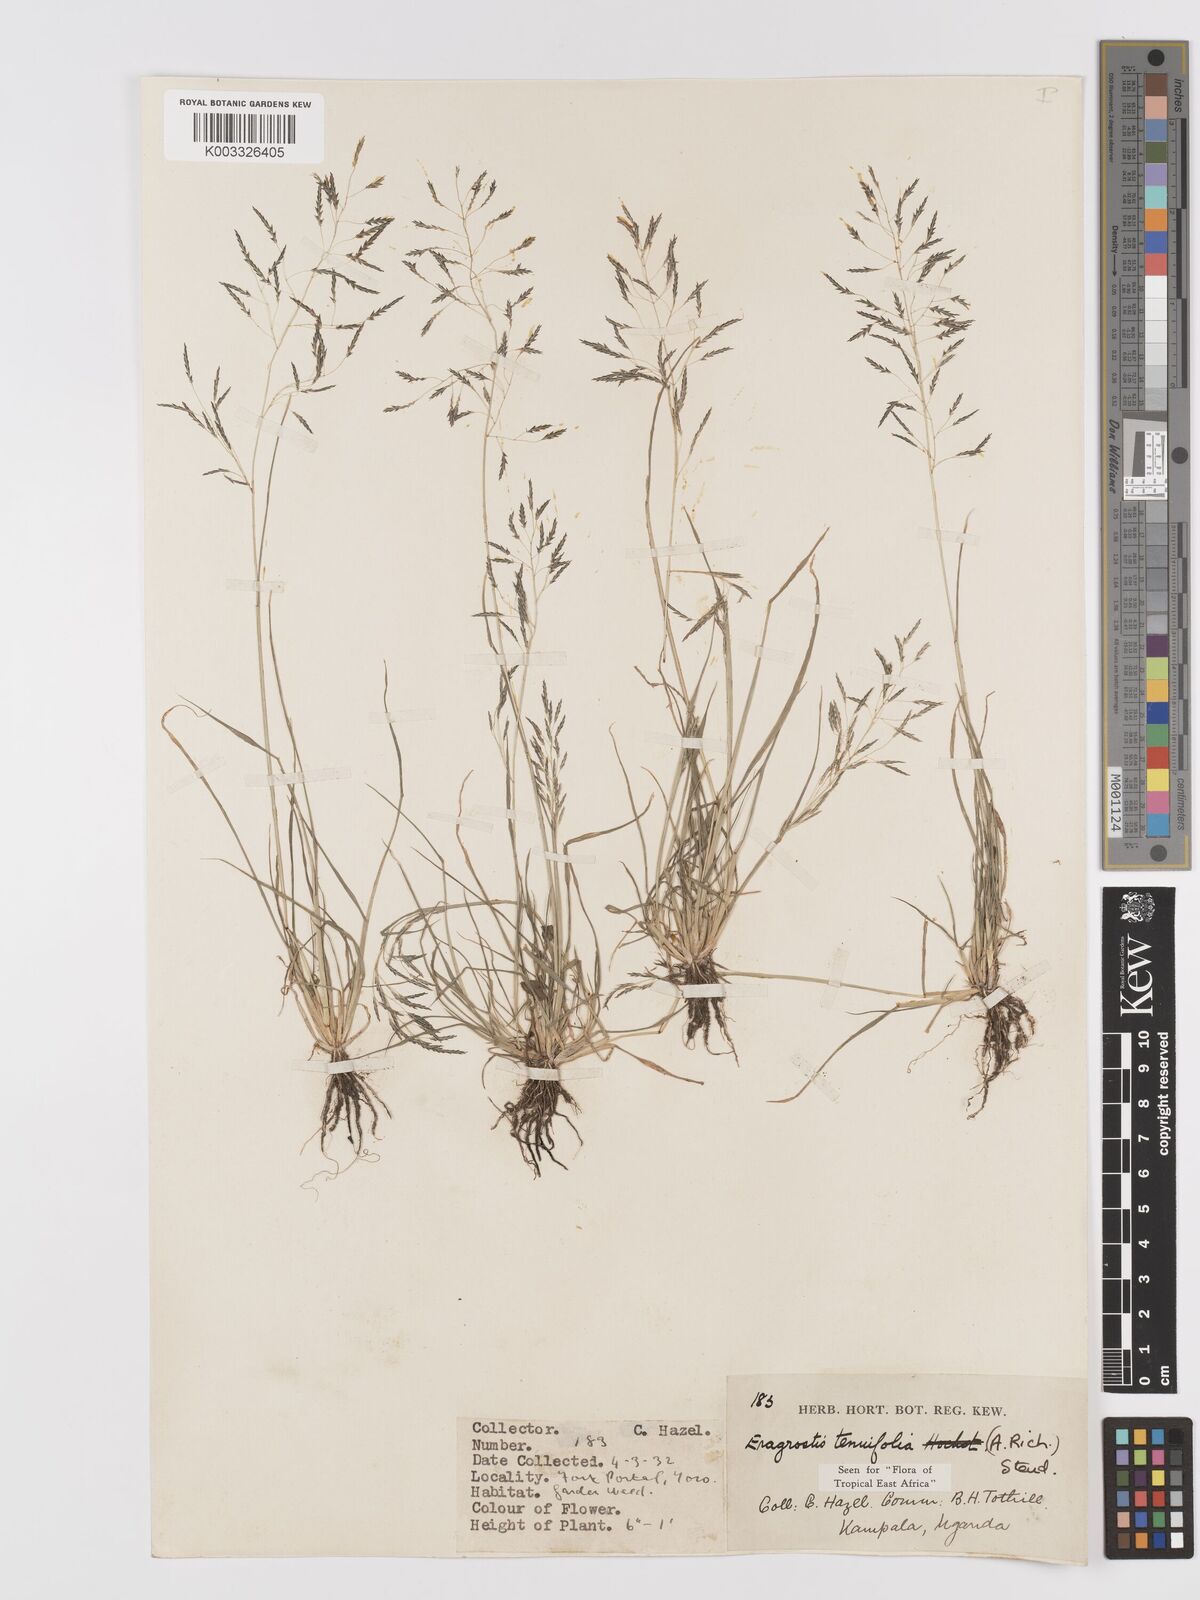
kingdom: Plantae
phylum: Tracheophyta
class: Liliopsida
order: Poales
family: Poaceae
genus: Eragrostis
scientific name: Eragrostis tenuifolia
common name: Elastic grass
